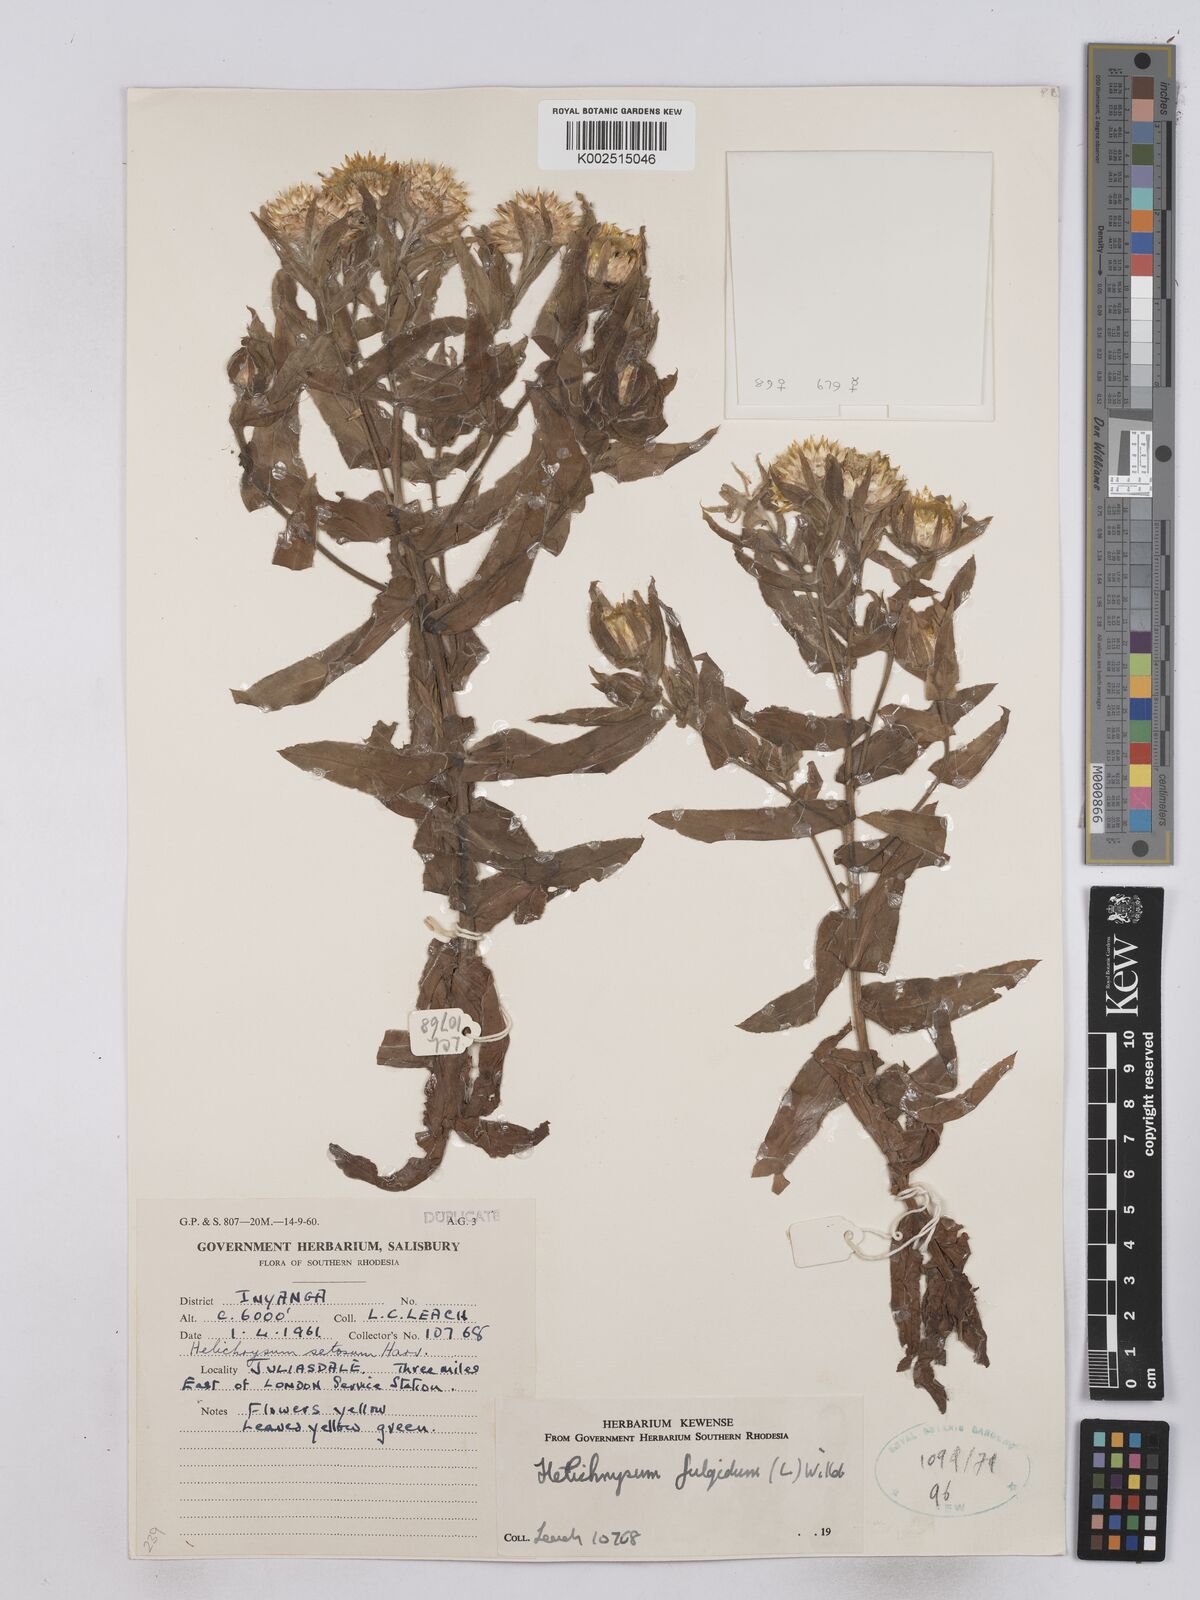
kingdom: Plantae
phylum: Tracheophyta
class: Magnoliopsida
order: Asterales
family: Asteraceae
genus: Helichrysum
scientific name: Helichrysum setosum
